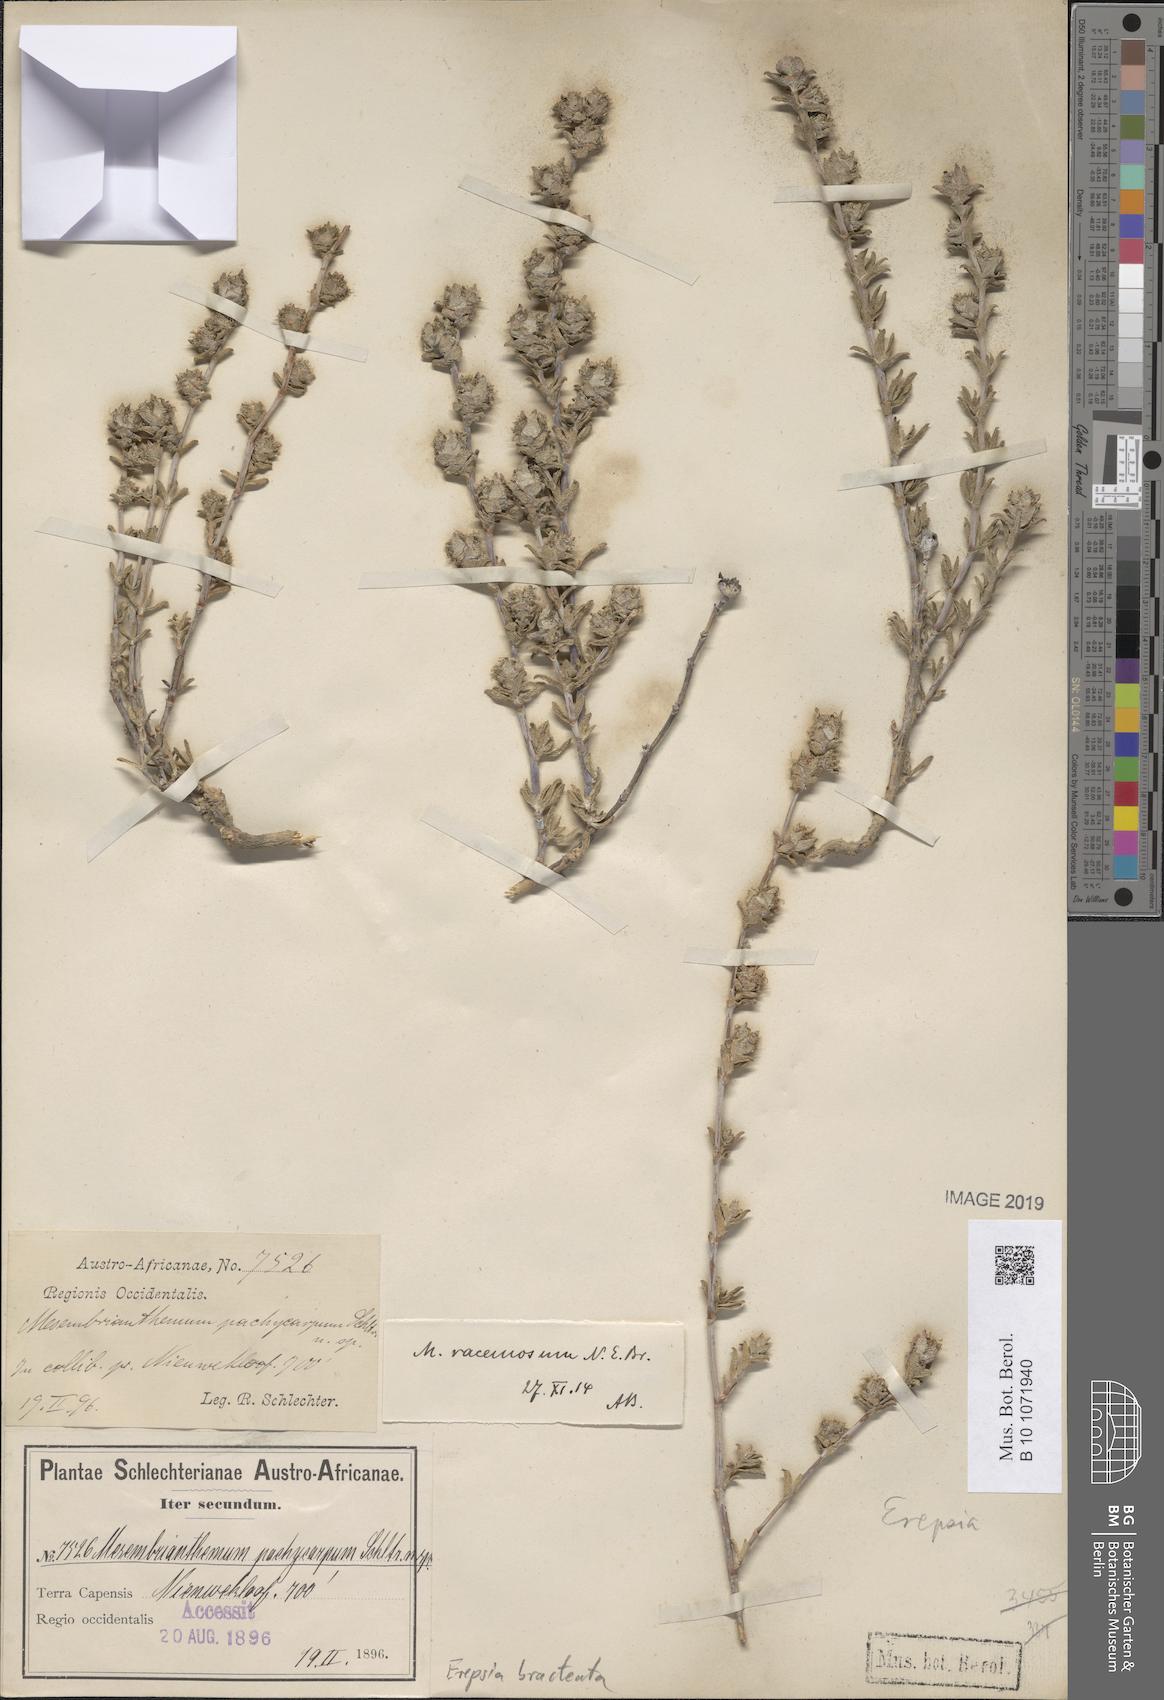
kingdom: Plantae
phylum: Tracheophyta
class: Magnoliopsida
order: Caryophyllales
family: Aizoaceae
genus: Erepsia
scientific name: Erepsia bracteata
